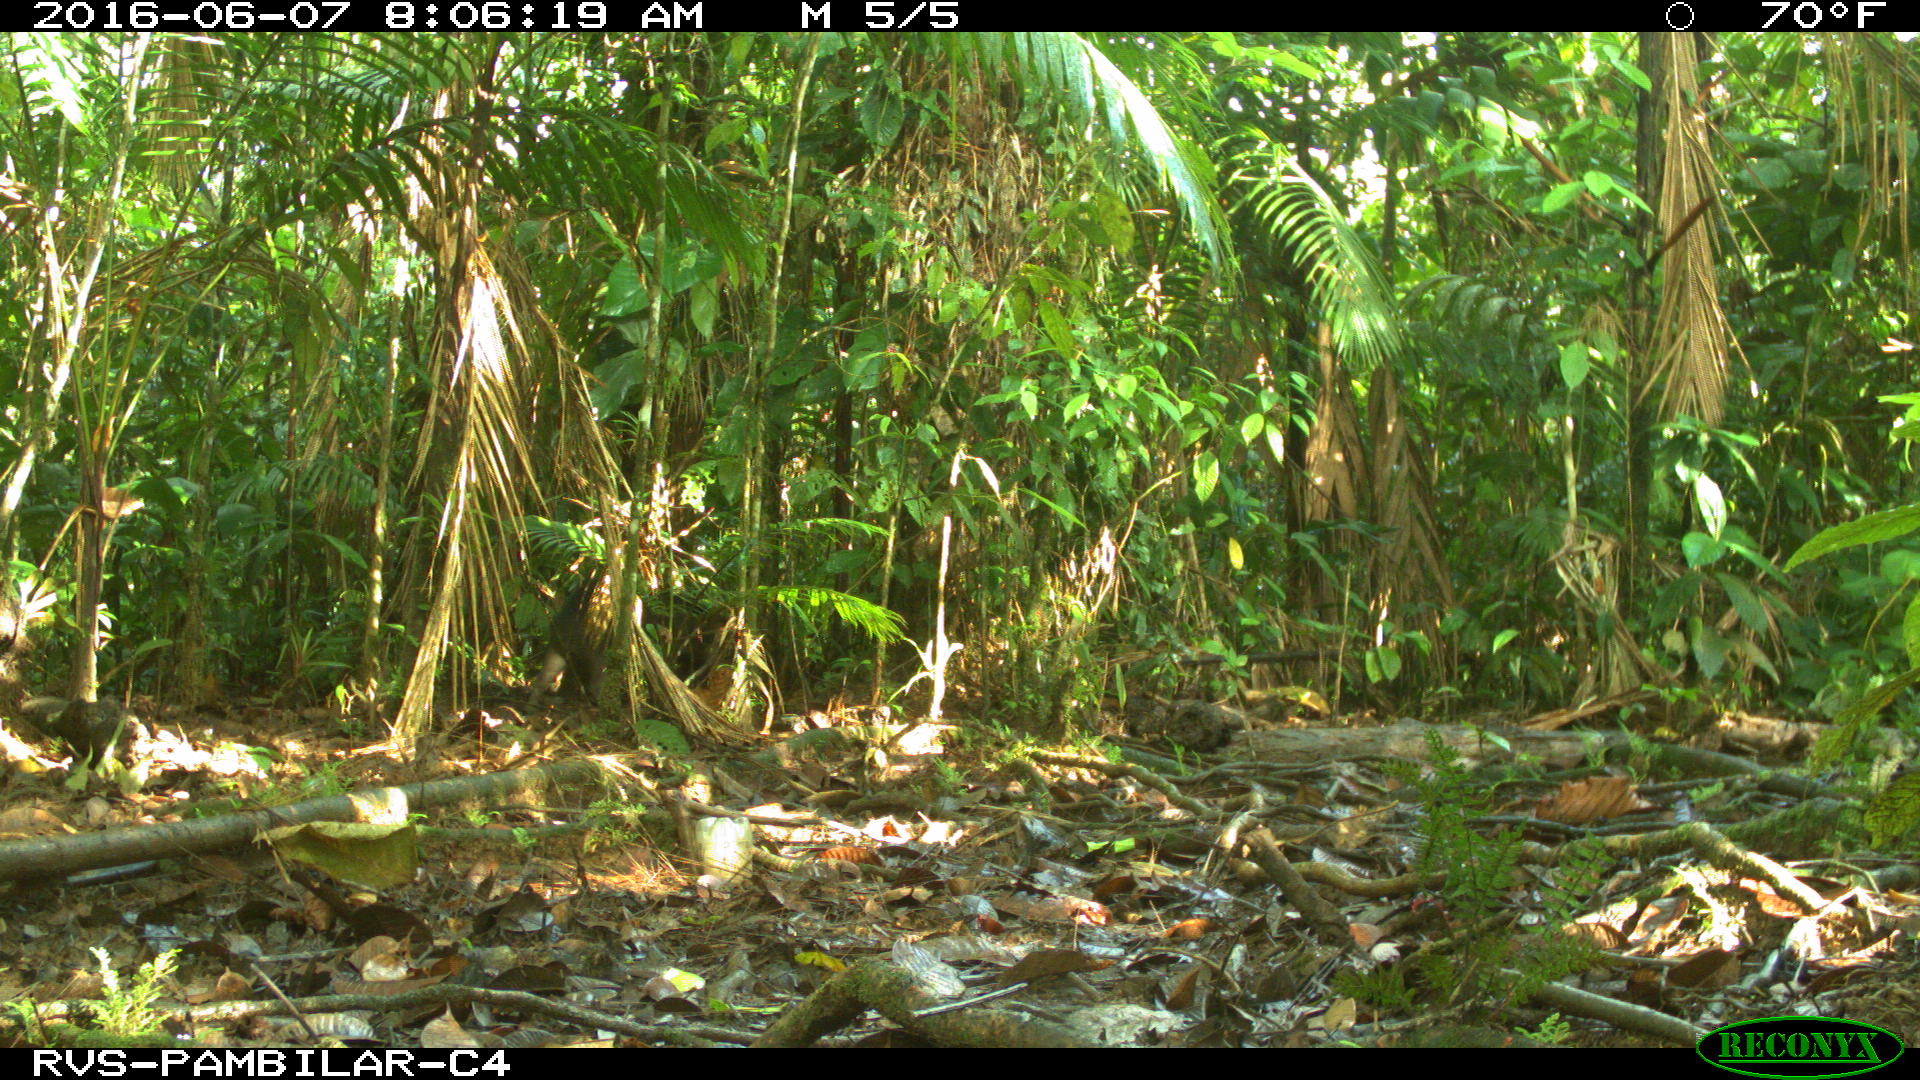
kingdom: Animalia
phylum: Chordata
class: Mammalia
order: Artiodactyla
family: Tayassuidae
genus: Tayassu
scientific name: Tayassu pecari
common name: White-lipped peccary
